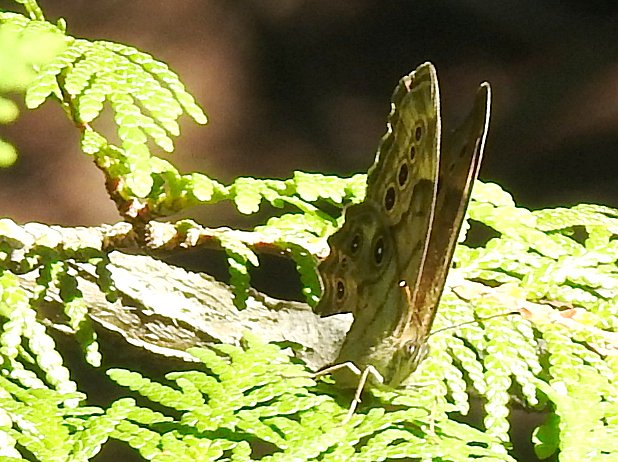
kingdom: Animalia
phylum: Arthropoda
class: Insecta
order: Lepidoptera
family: Nymphalidae
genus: Lethe
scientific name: Lethe anthedon
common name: Northern Pearly-Eye
